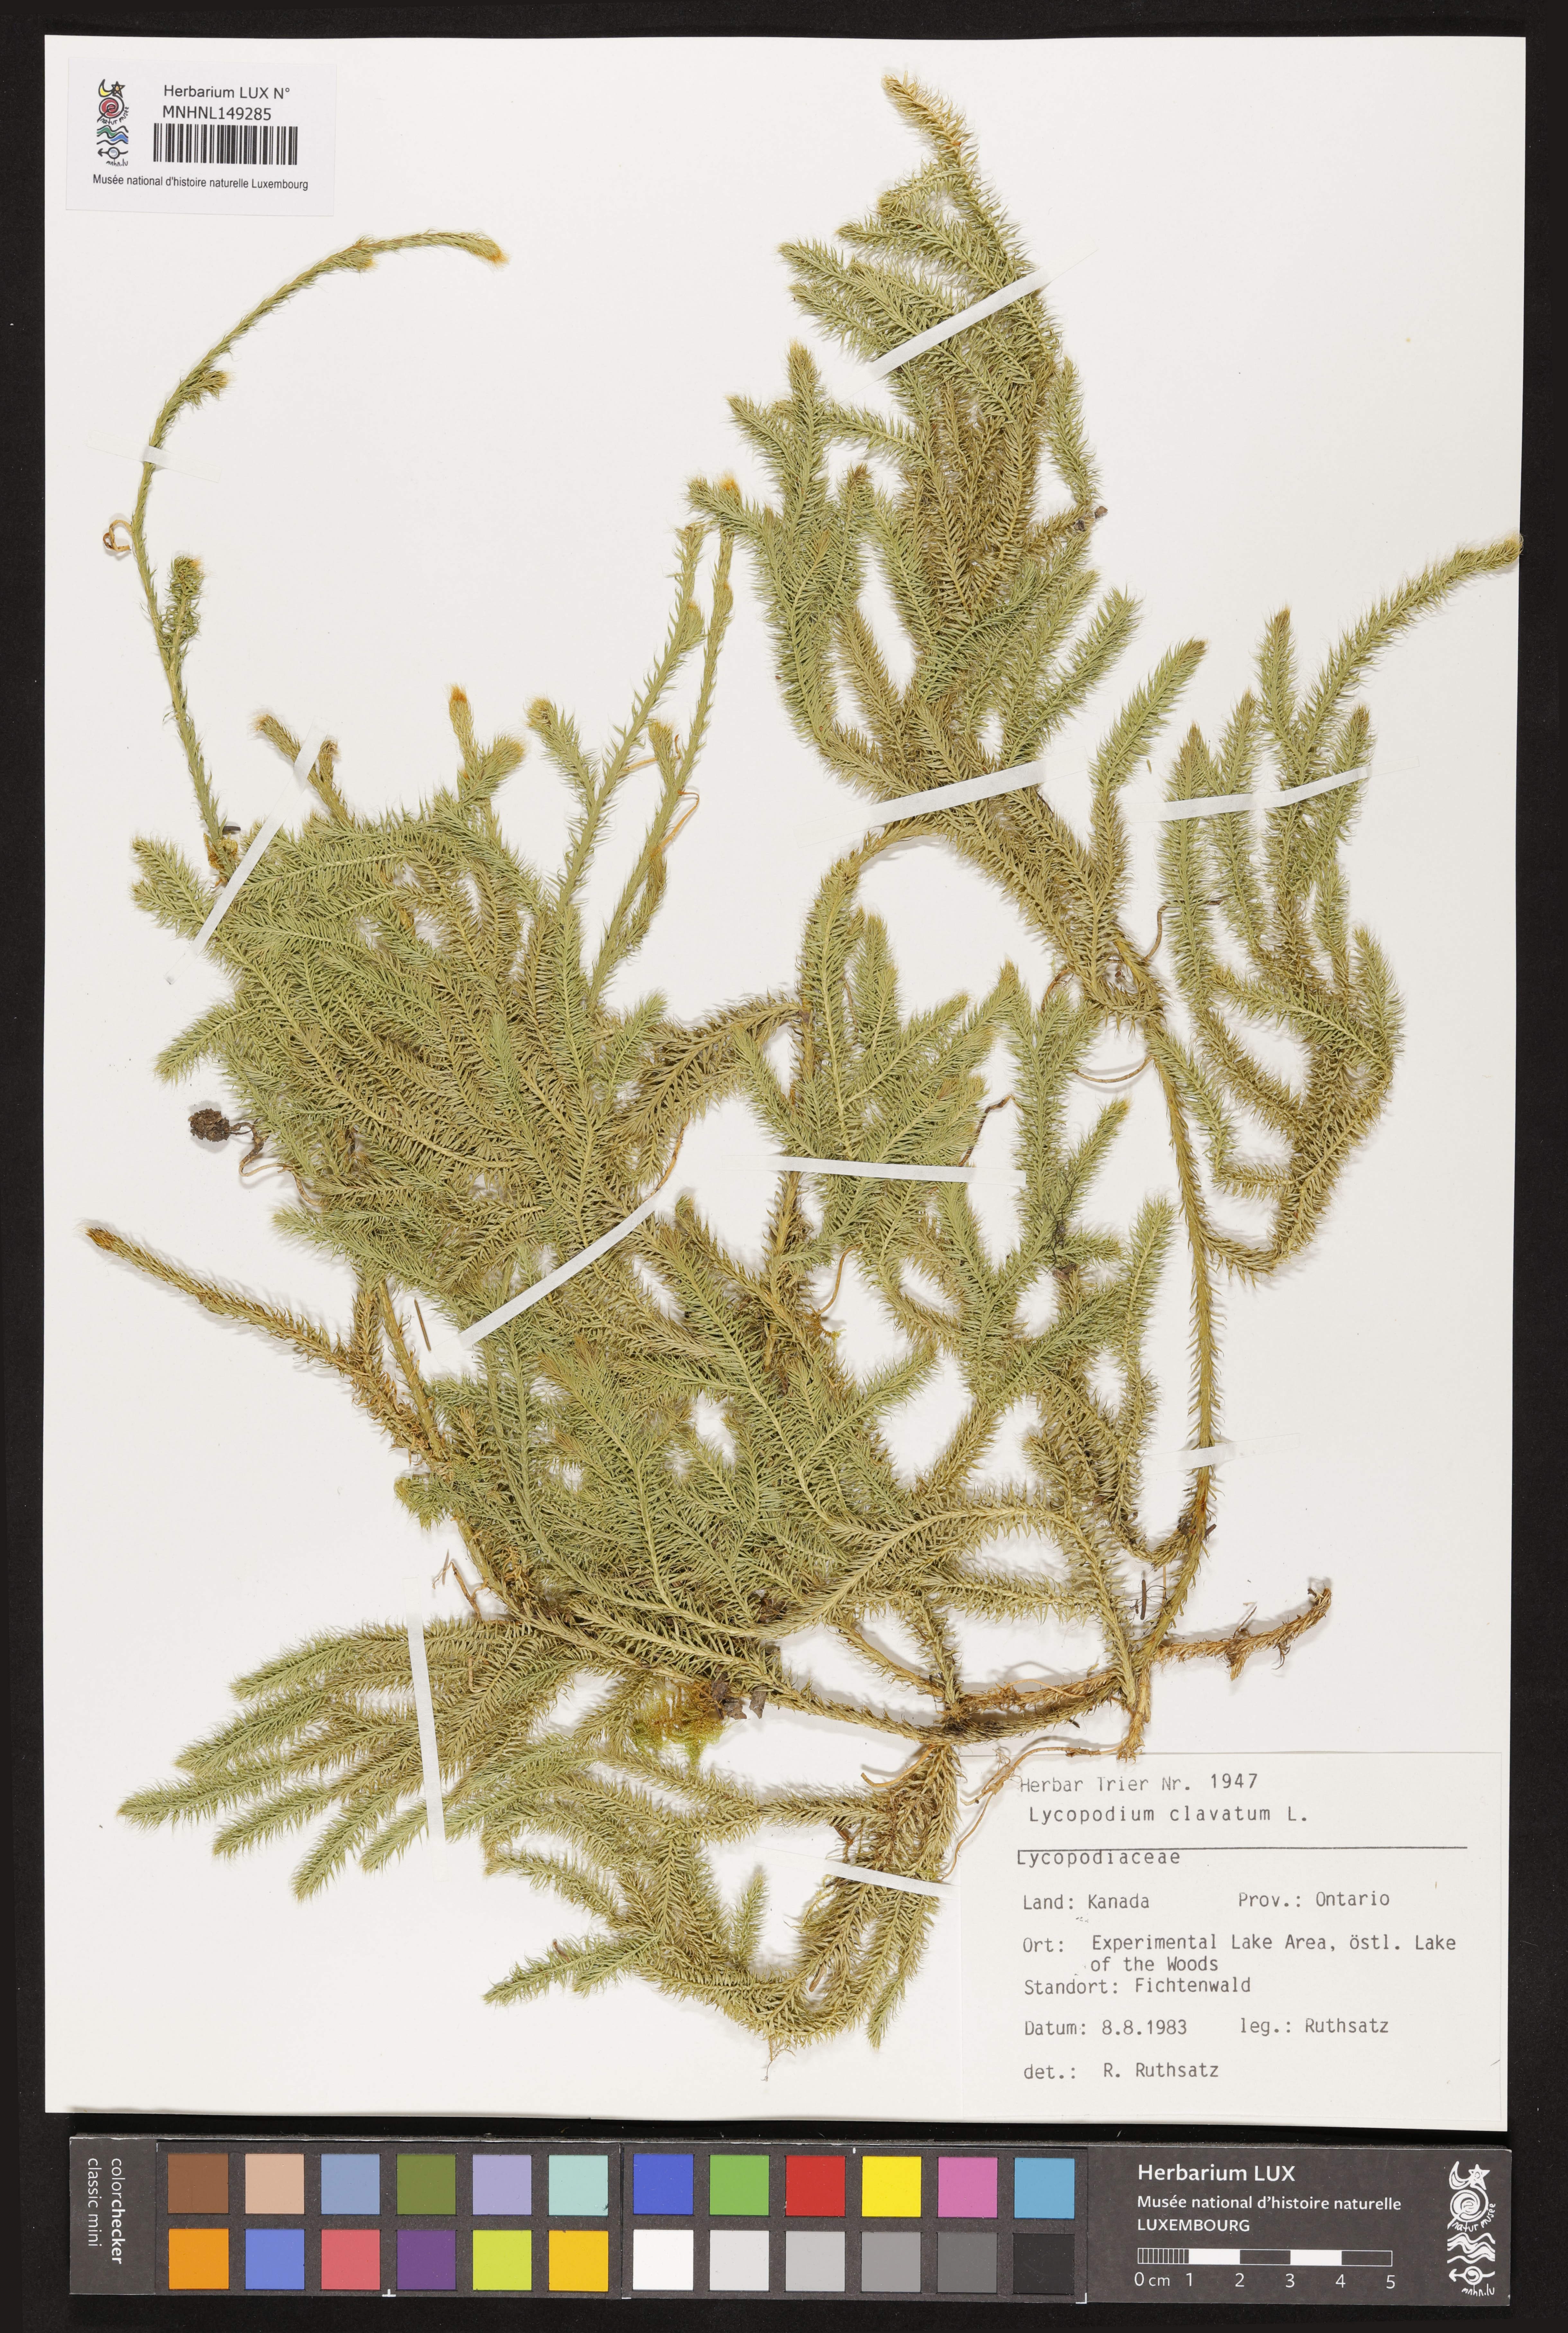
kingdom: Plantae
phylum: Tracheophyta
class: Lycopodiopsida
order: Lycopodiales
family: Lycopodiaceae
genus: Lycopodium
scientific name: Lycopodium clavatum
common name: Stag's-horn clubmoss
